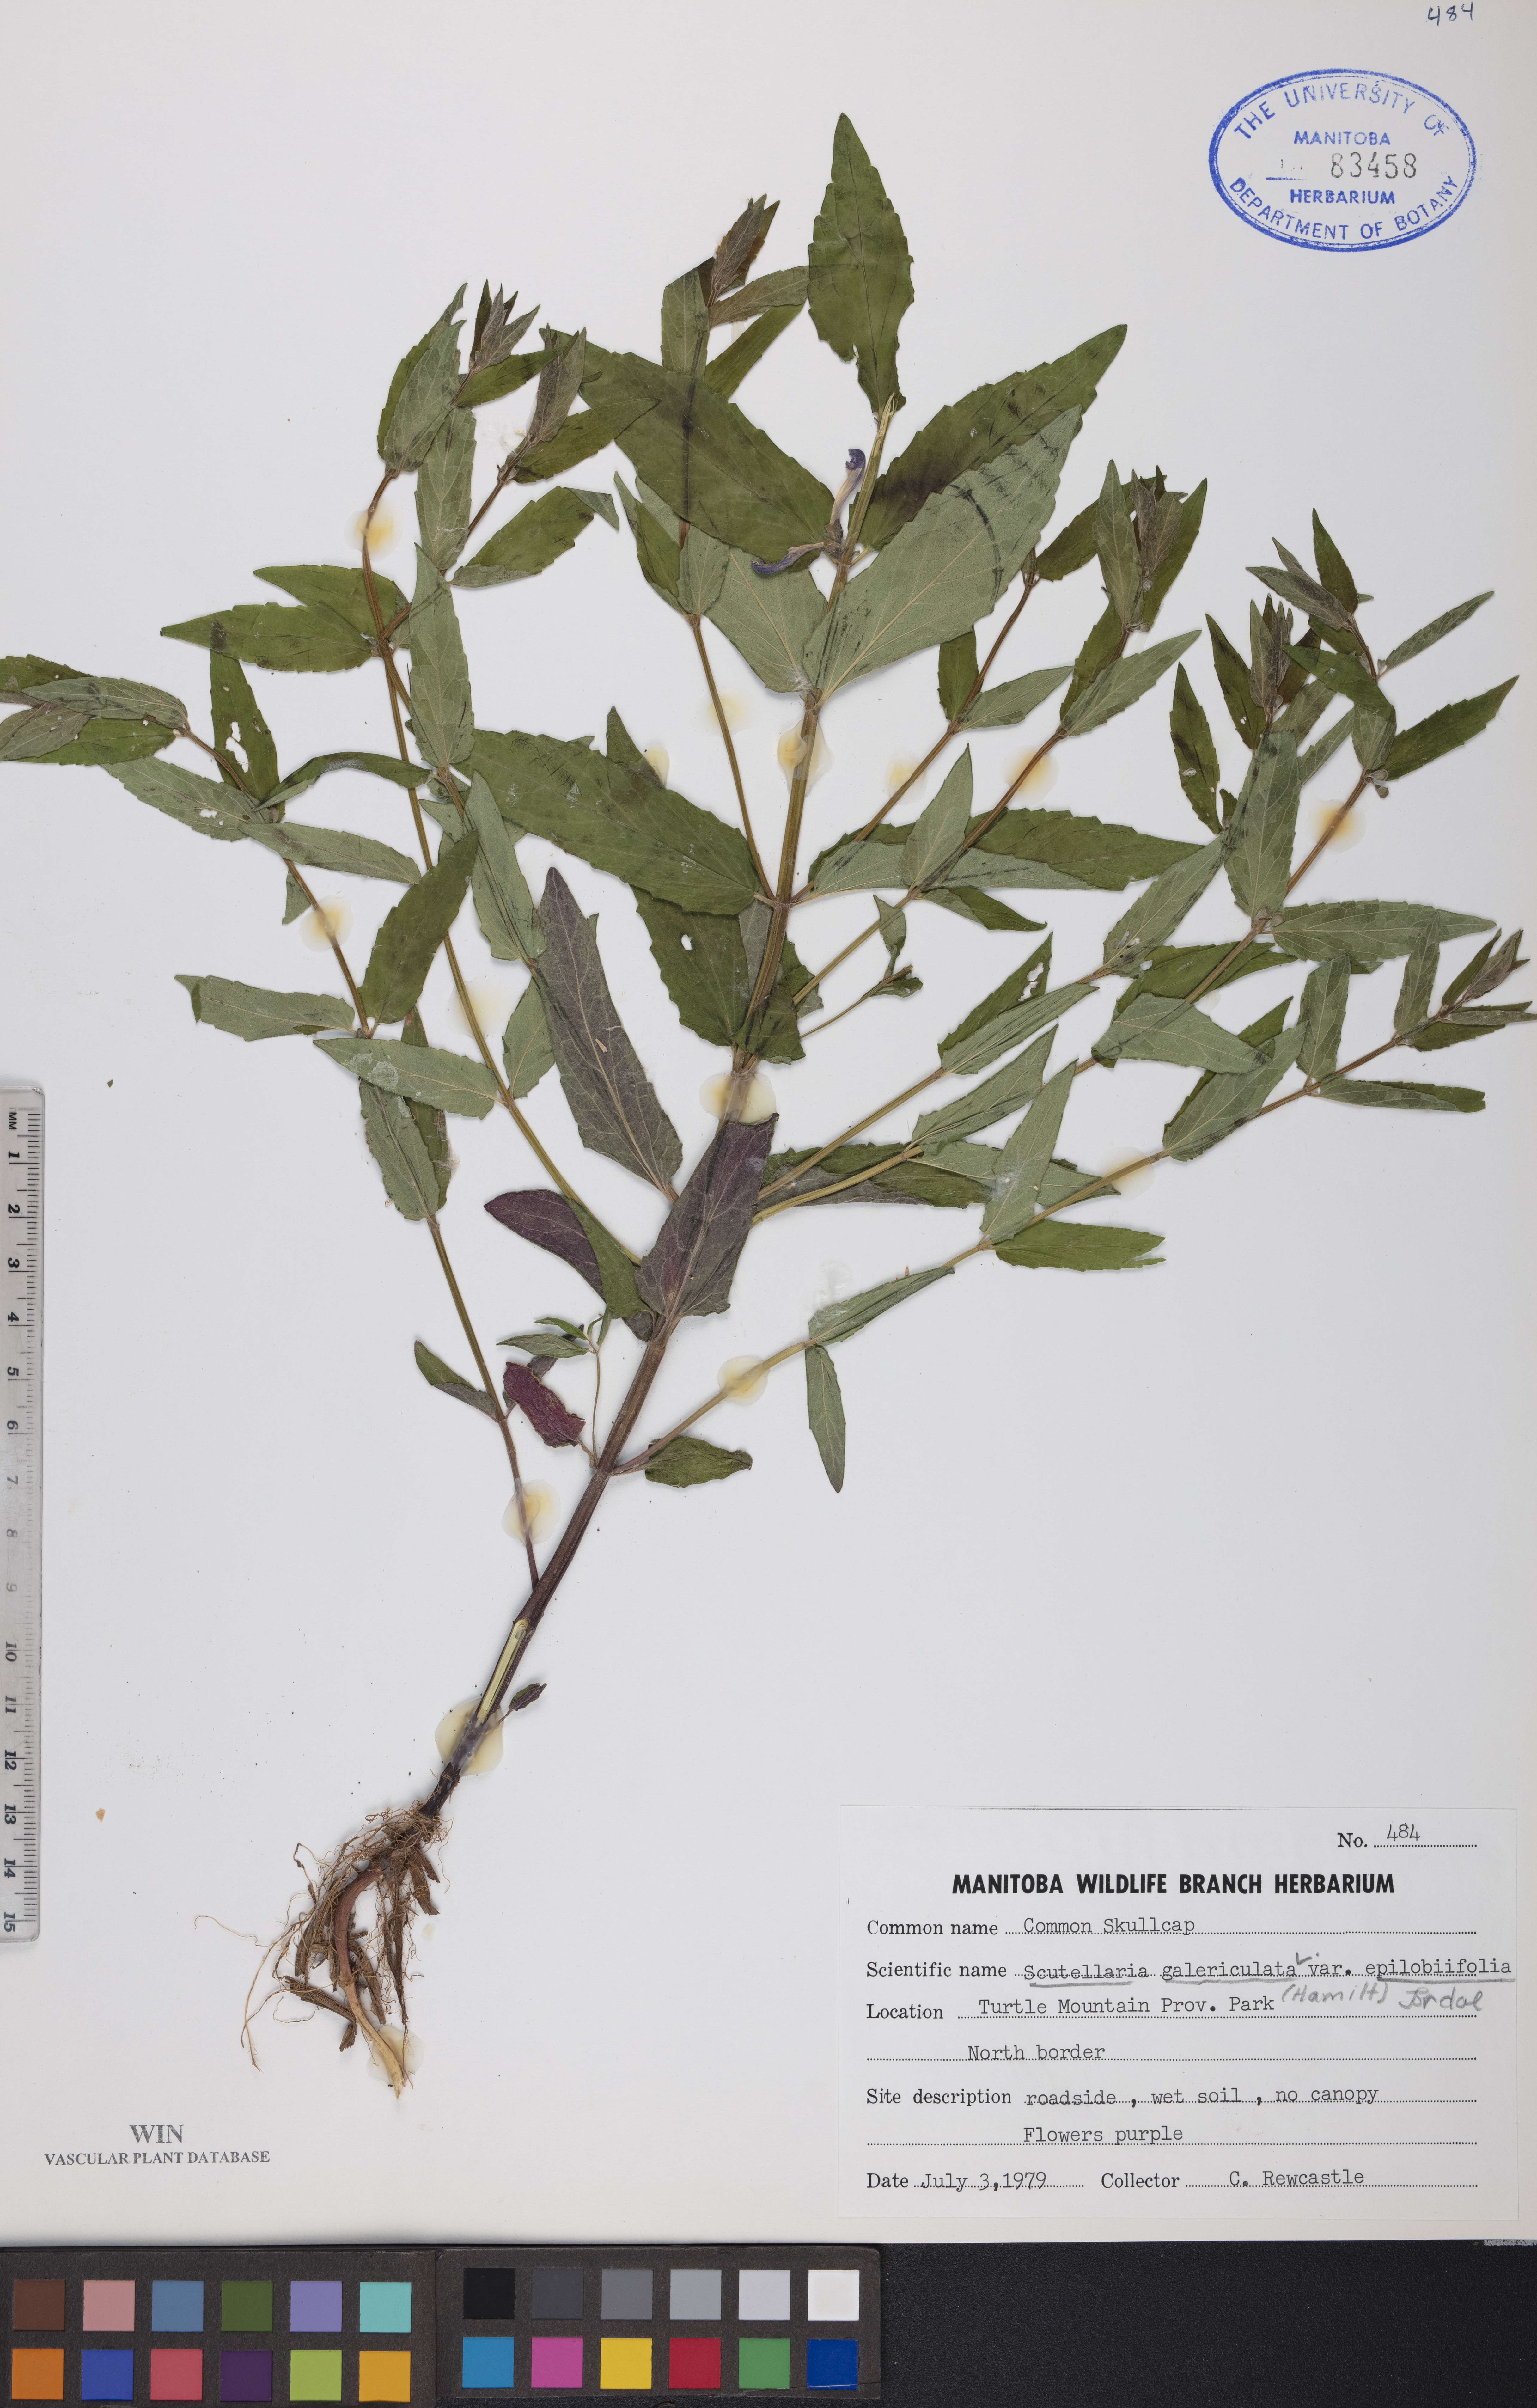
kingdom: Plantae
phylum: Tracheophyta
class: Magnoliopsida
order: Lamiales
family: Lamiaceae
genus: Scutellaria
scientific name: Scutellaria galericulata
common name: Skullcap
